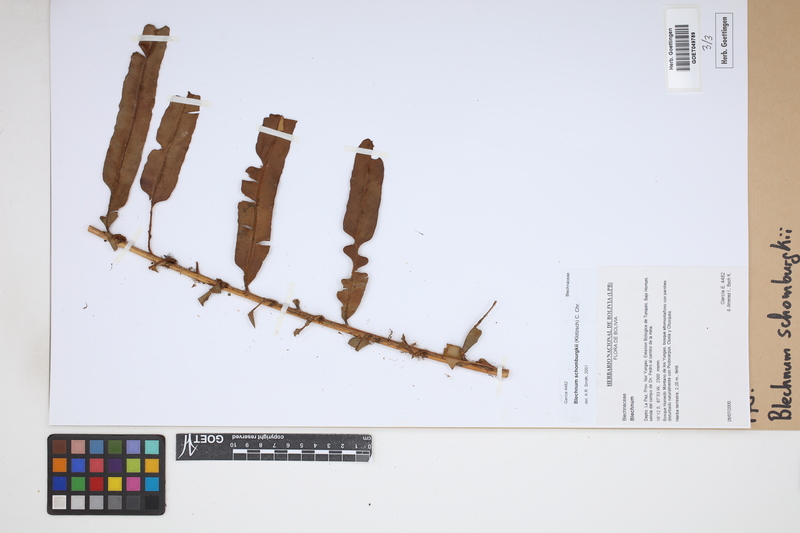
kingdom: Plantae
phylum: Tracheophyta
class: Polypodiopsida
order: Polypodiales
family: Blechnaceae
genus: Lomariocycas
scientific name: Lomariocycas schomburgkii
